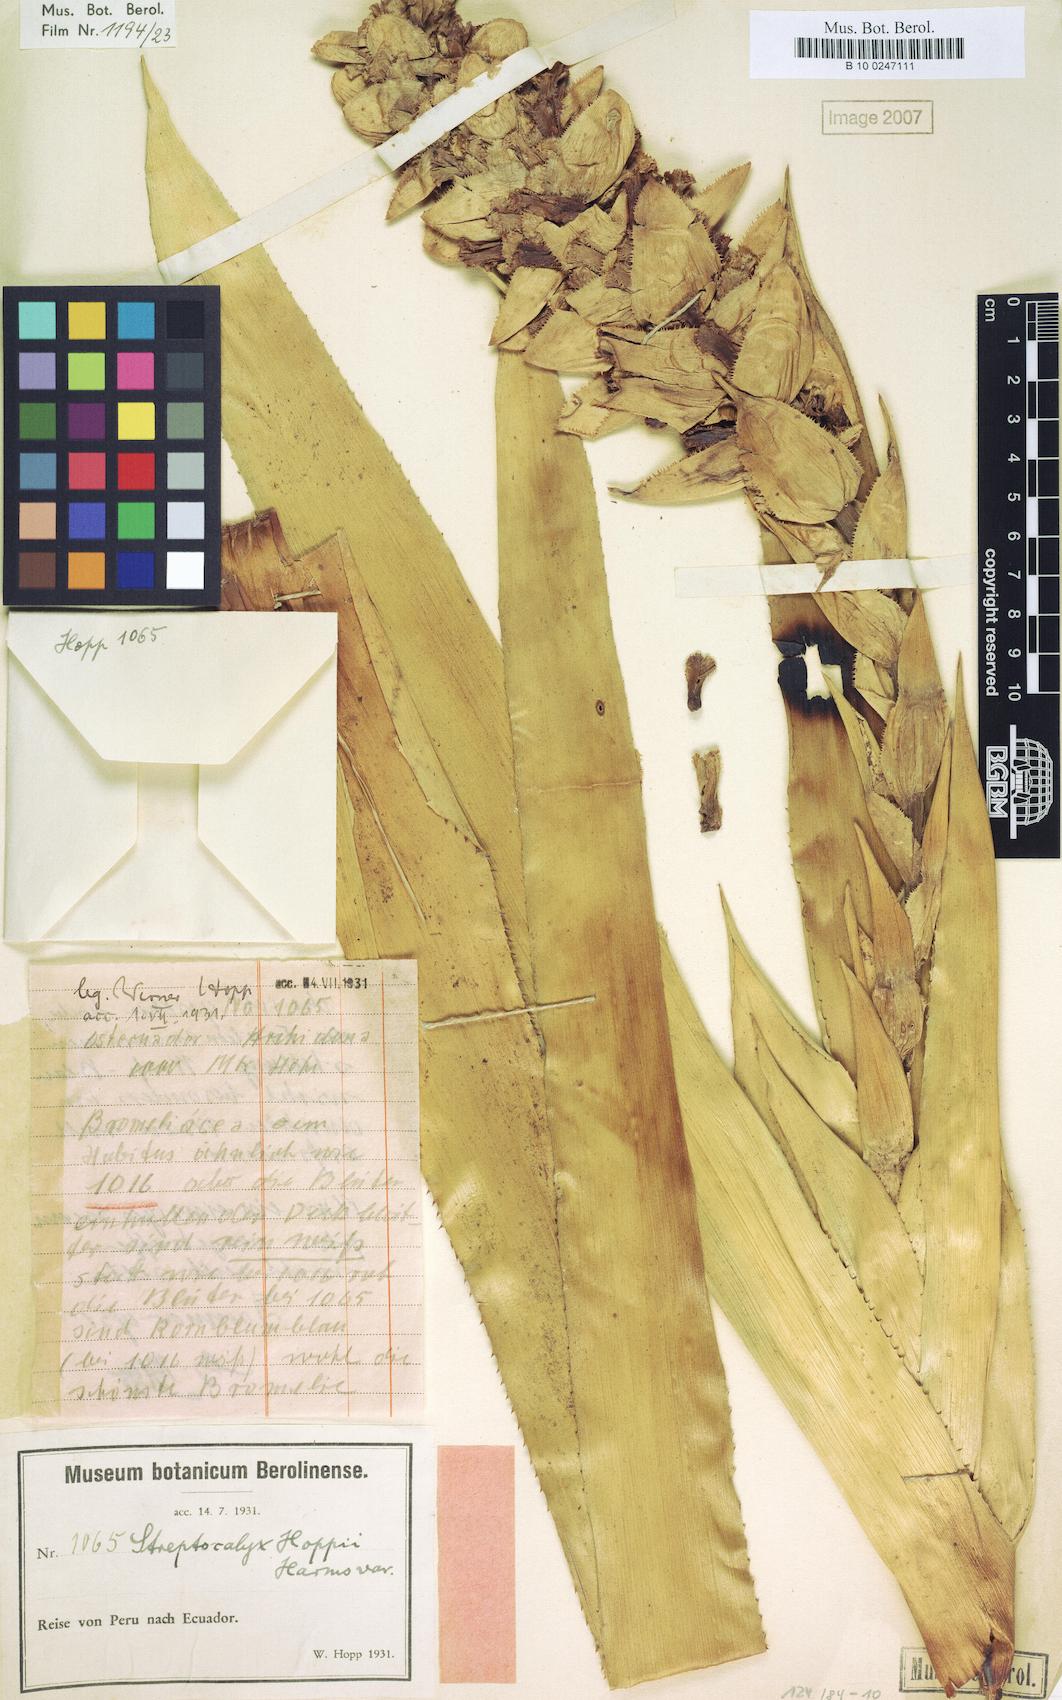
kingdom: Plantae
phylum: Tracheophyta
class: Liliopsida
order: Poales
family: Bromeliaceae
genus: Aechmea
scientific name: Aechmea hoppii
